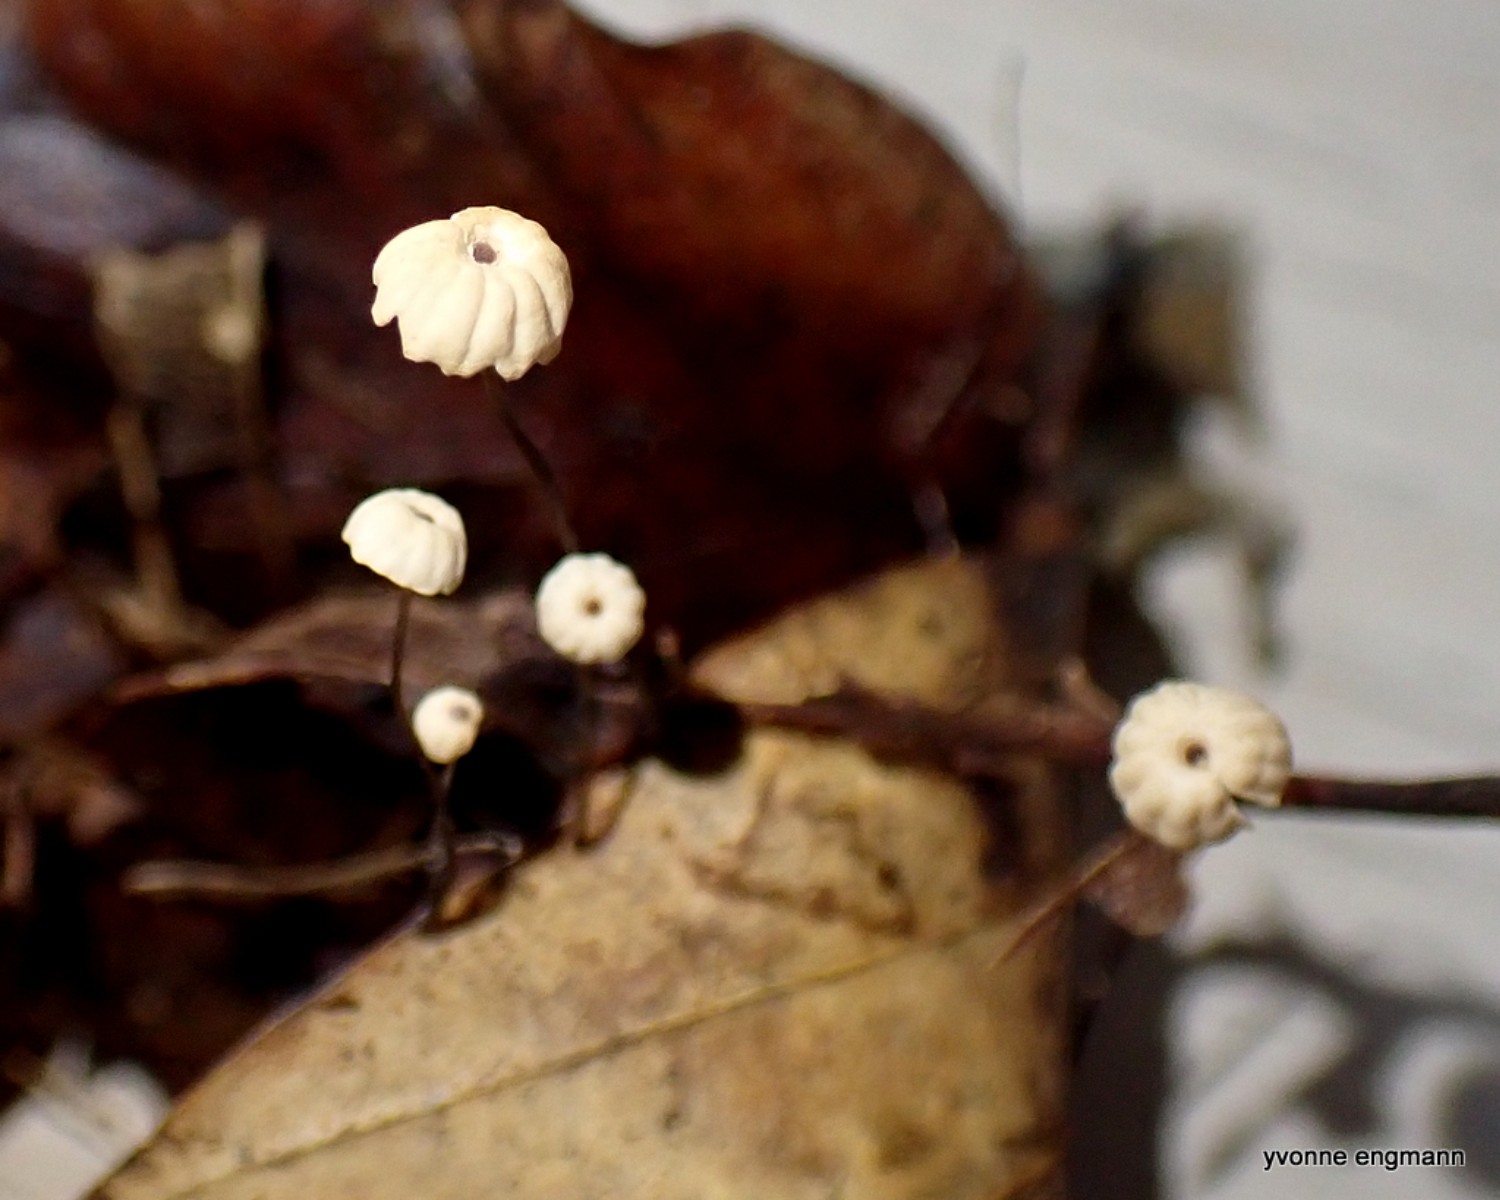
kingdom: Fungi
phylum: Basidiomycota
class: Agaricomycetes
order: Agaricales
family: Marasmiaceae
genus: Marasmius
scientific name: Marasmius bulliardii
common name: furet bruskhat
